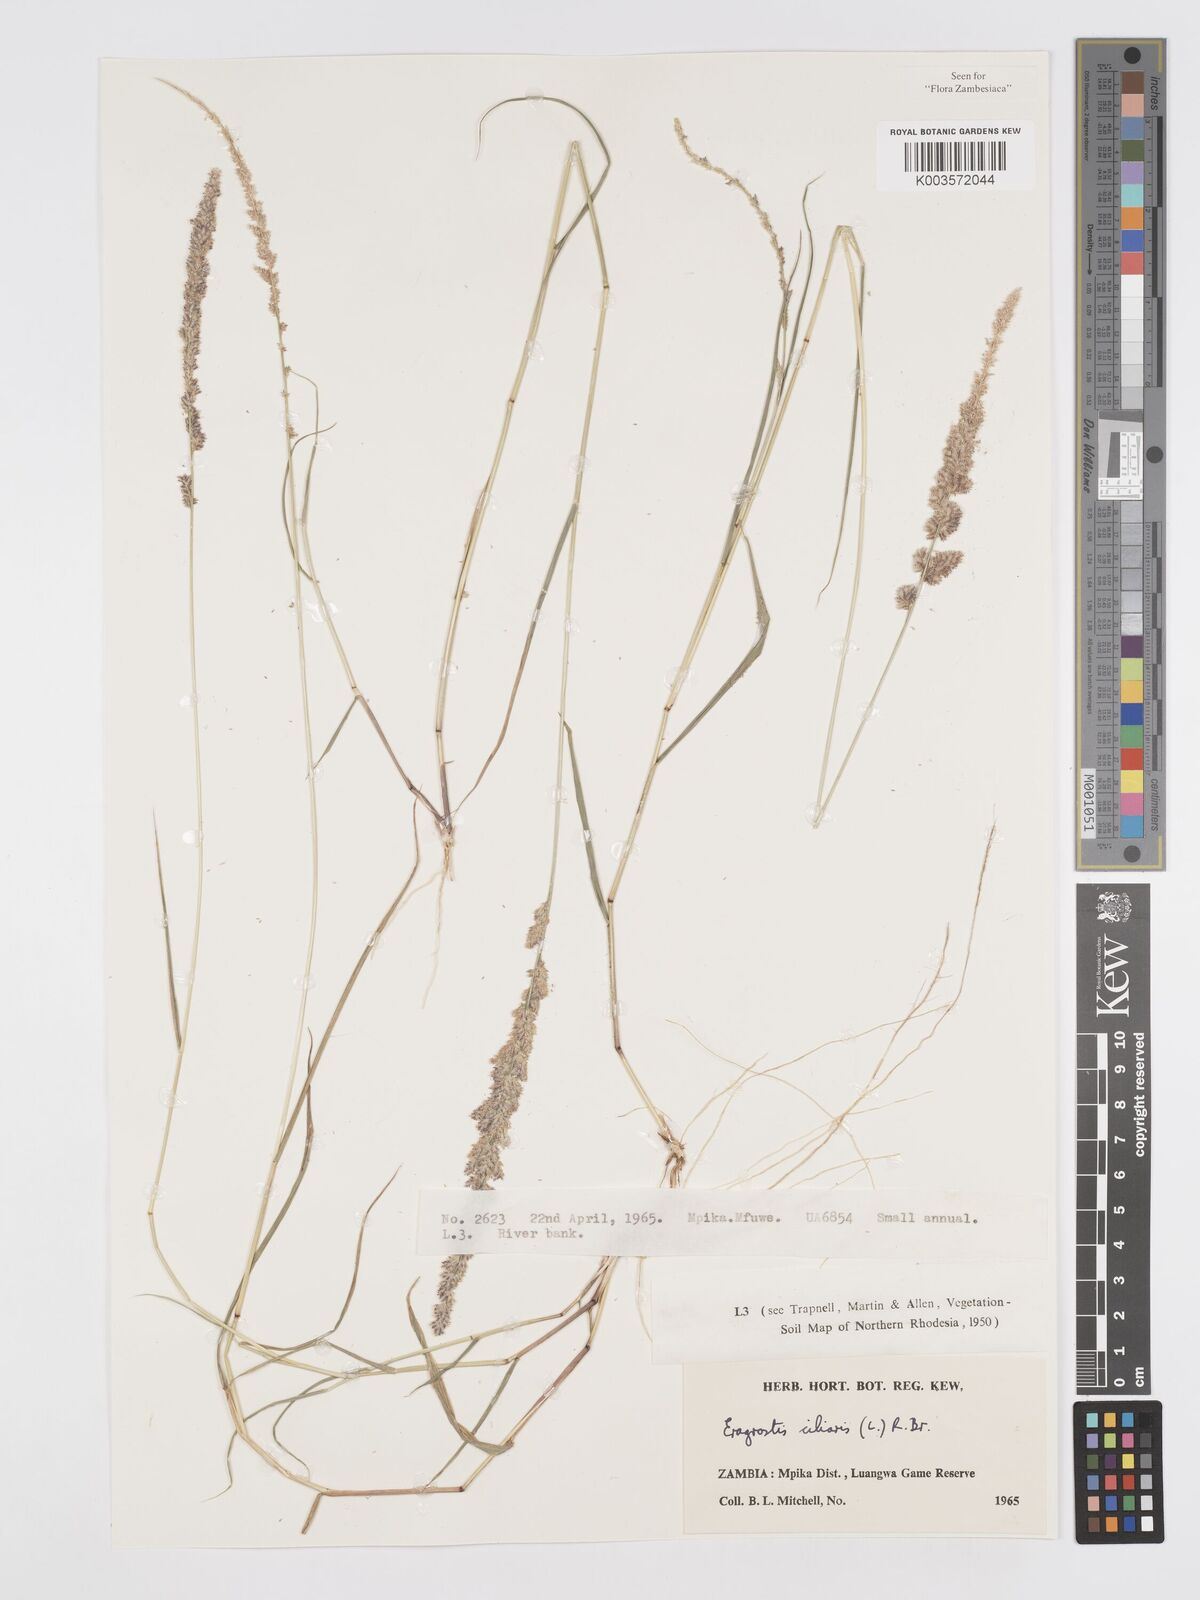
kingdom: Plantae
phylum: Tracheophyta
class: Liliopsida
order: Poales
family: Poaceae
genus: Eragrostis
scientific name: Eragrostis ciliaris
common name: Gophertail lovegrass
